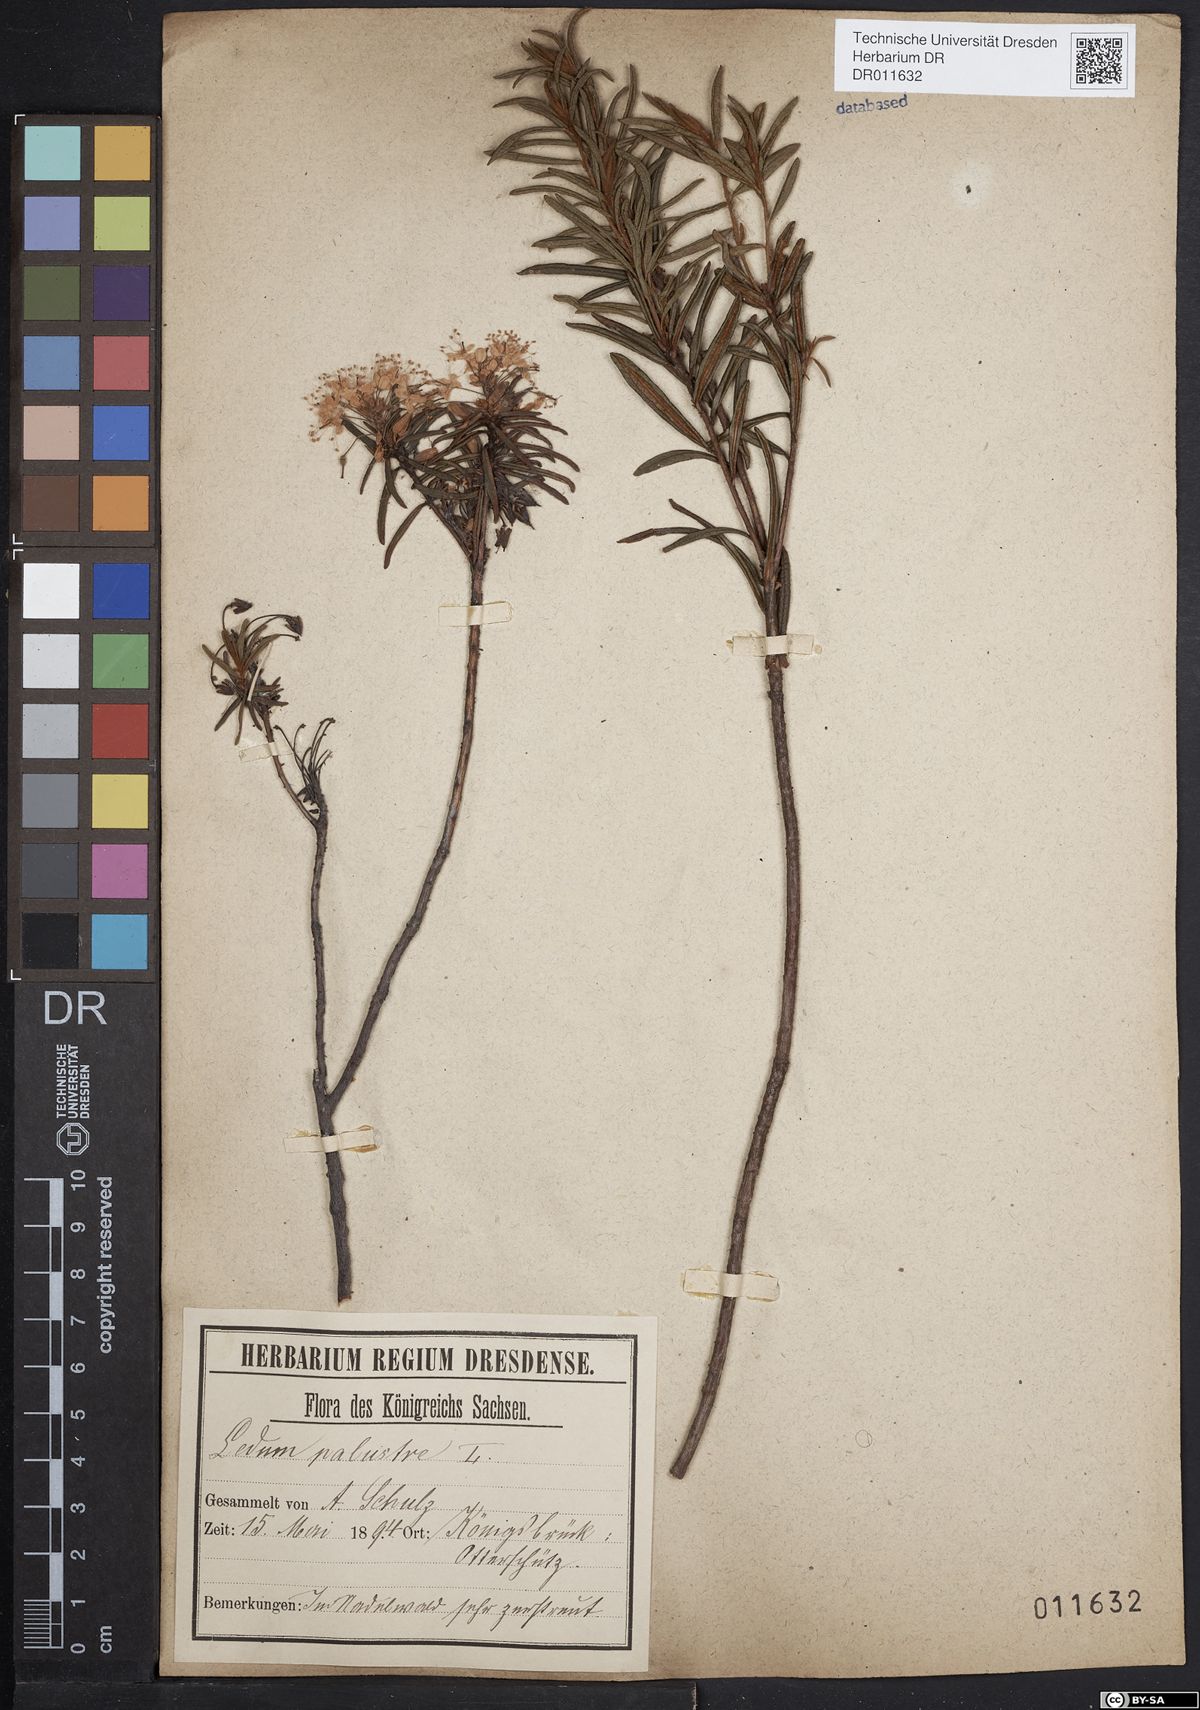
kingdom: Plantae
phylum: Tracheophyta
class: Magnoliopsida
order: Ericales
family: Ericaceae
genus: Rhododendron
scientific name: Rhododendron tomentosum
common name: Marsh labrador tea
